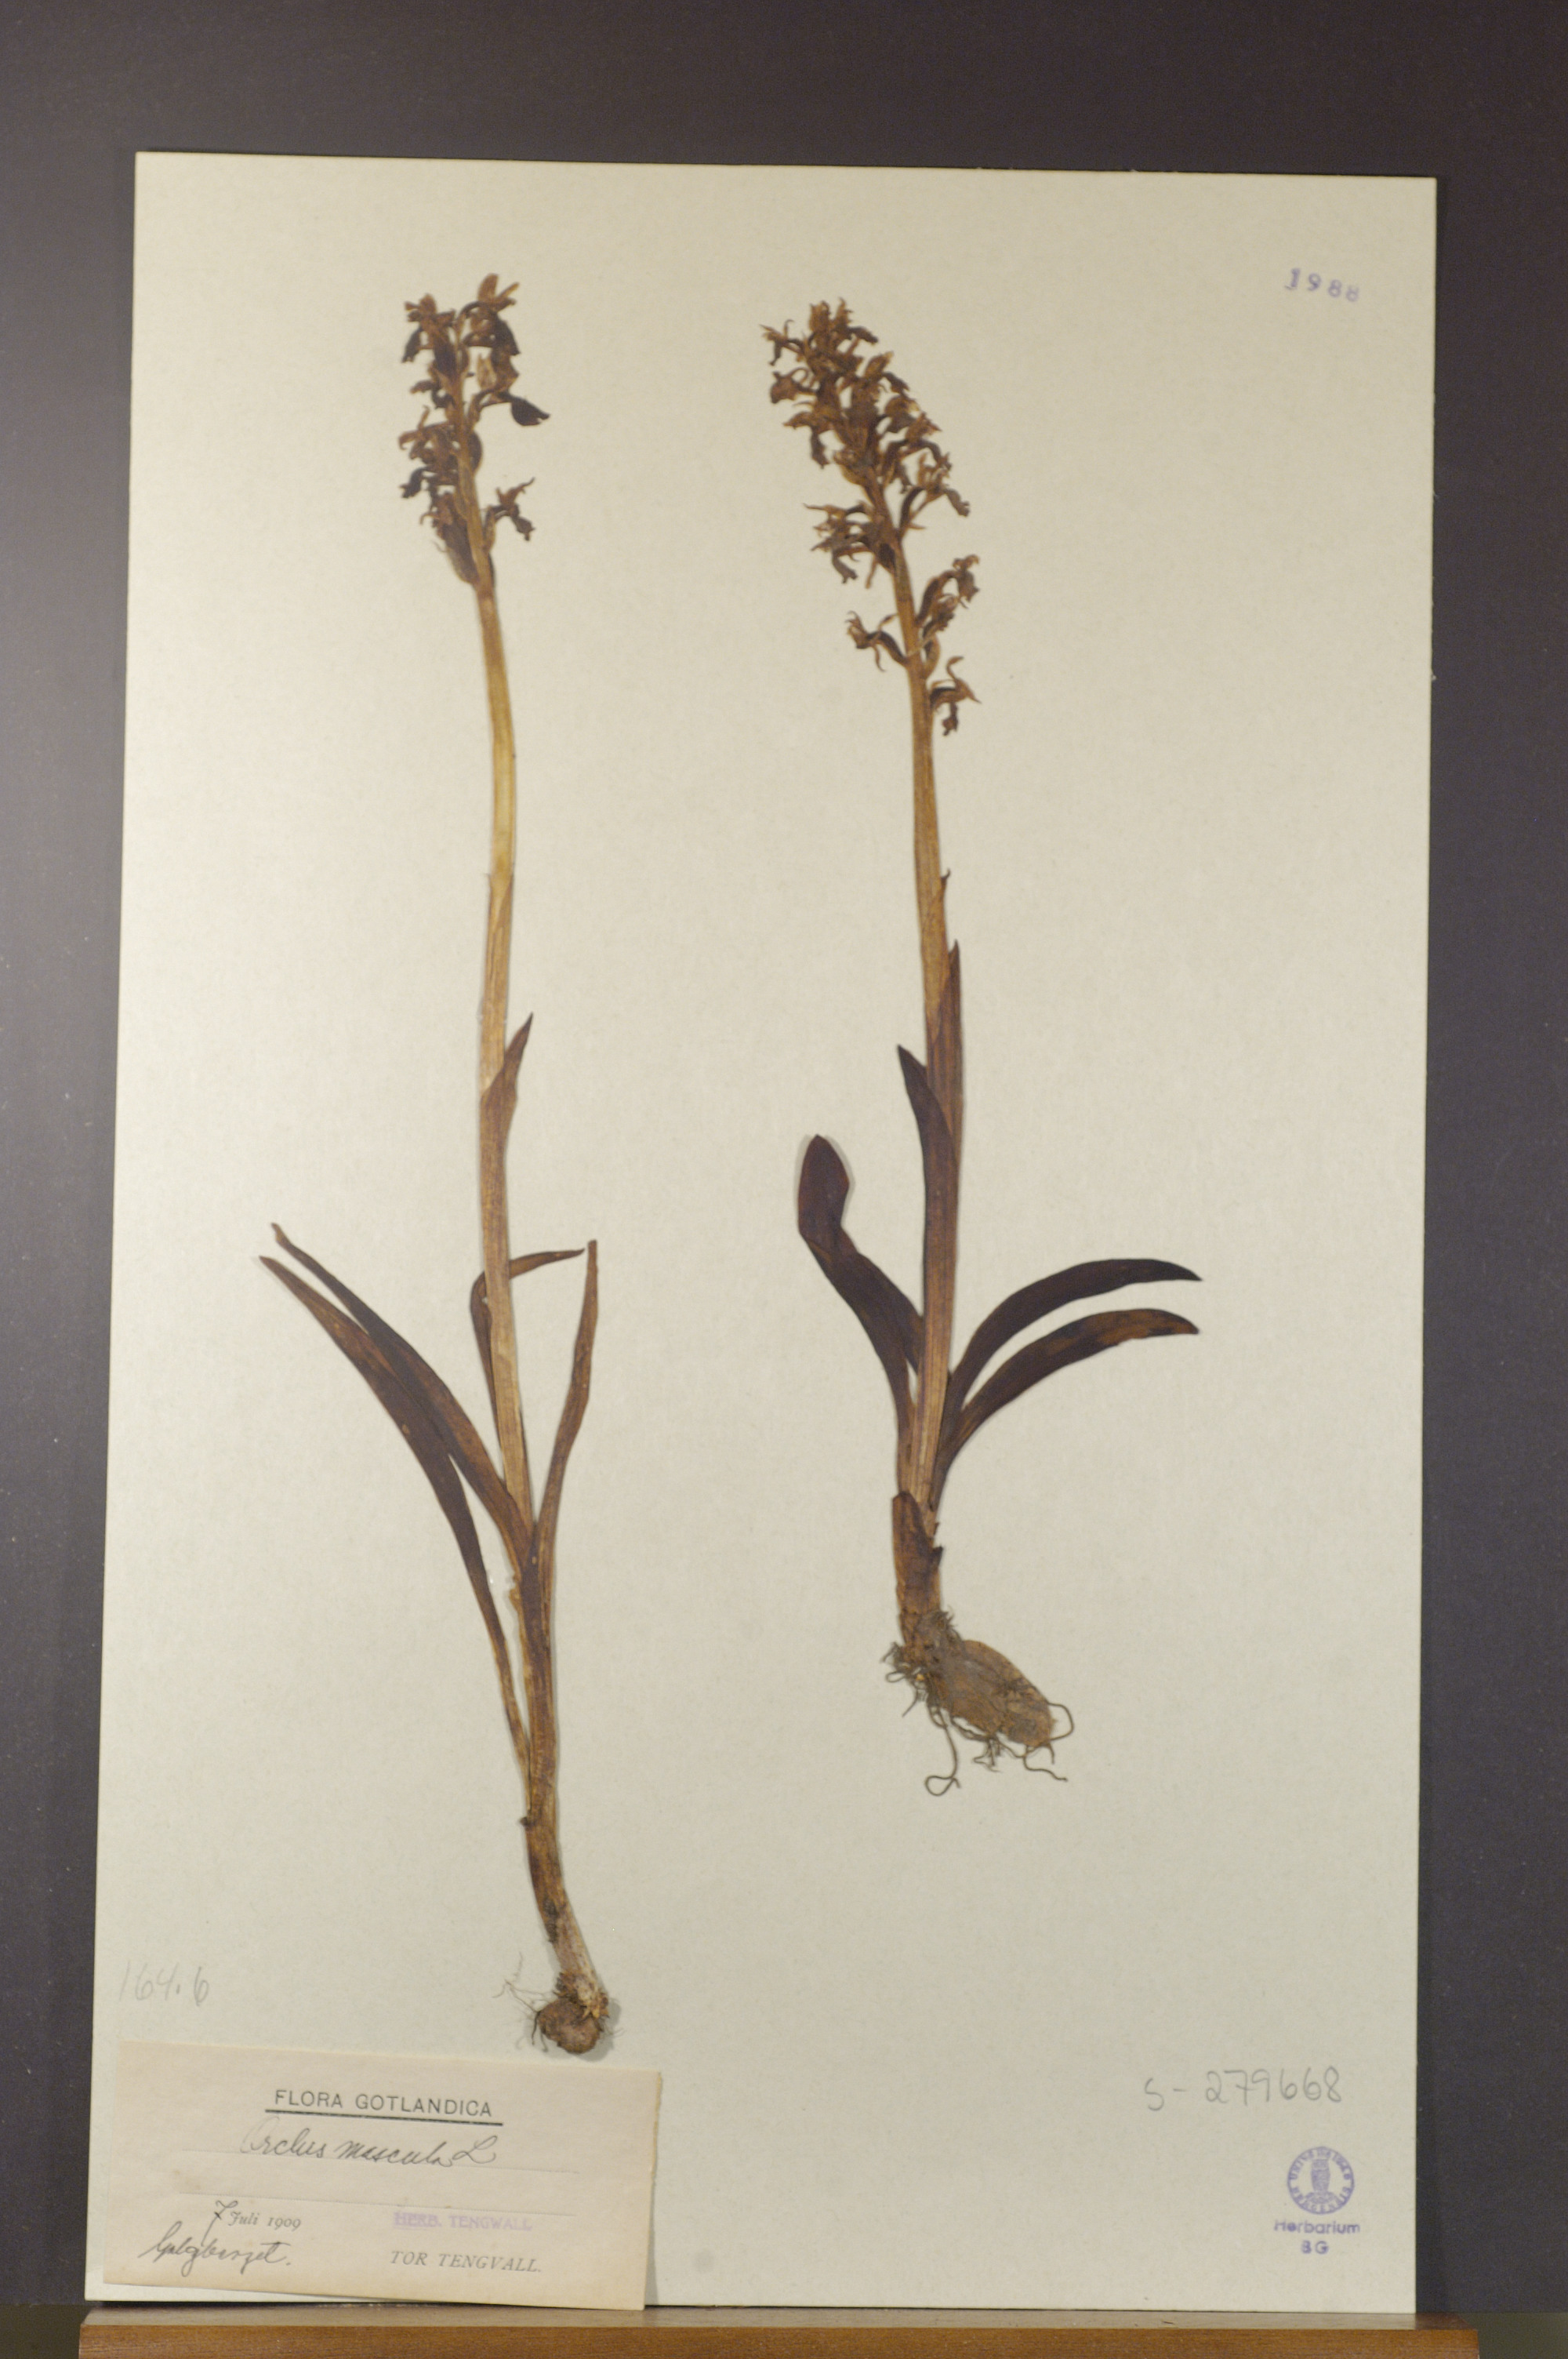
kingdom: Plantae
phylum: Tracheophyta
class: Liliopsida
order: Asparagales
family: Orchidaceae
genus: Orchis
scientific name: Orchis mascula
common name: Early-purple orchid
